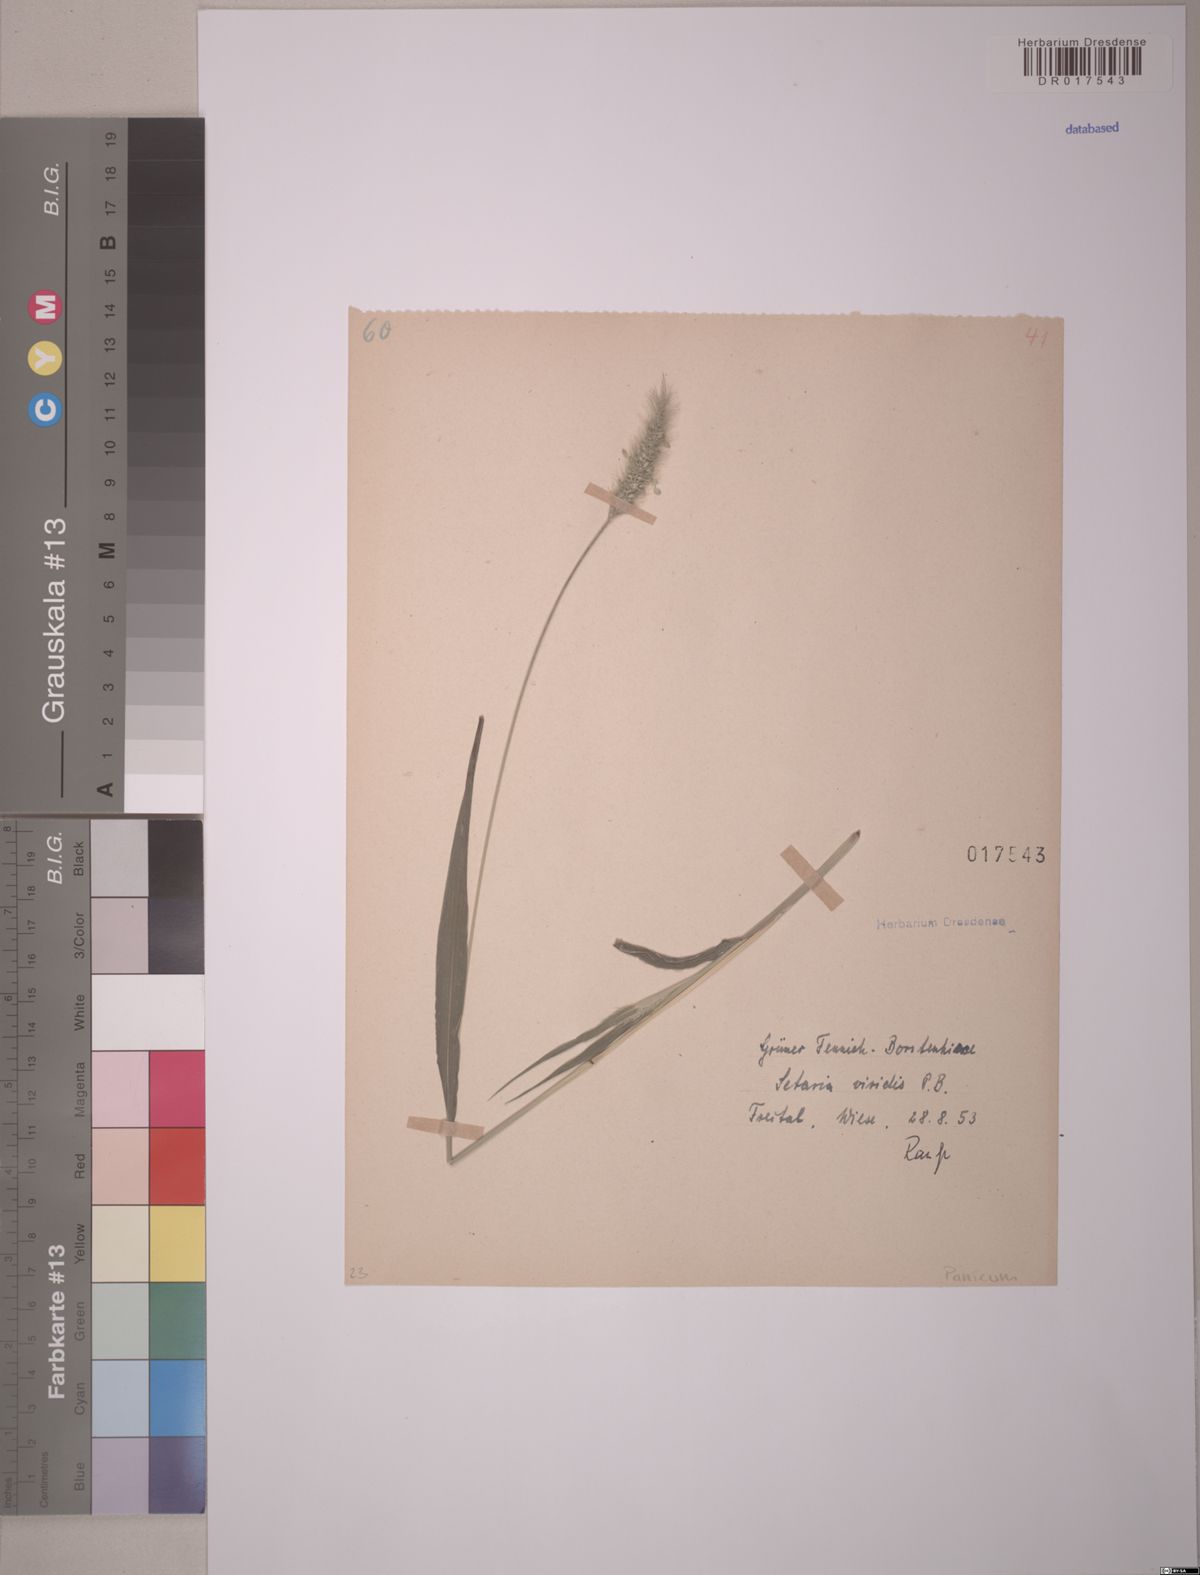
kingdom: Plantae
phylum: Tracheophyta
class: Liliopsida
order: Poales
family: Poaceae
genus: Setaria
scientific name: Setaria viridis
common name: Green bristlegrass
